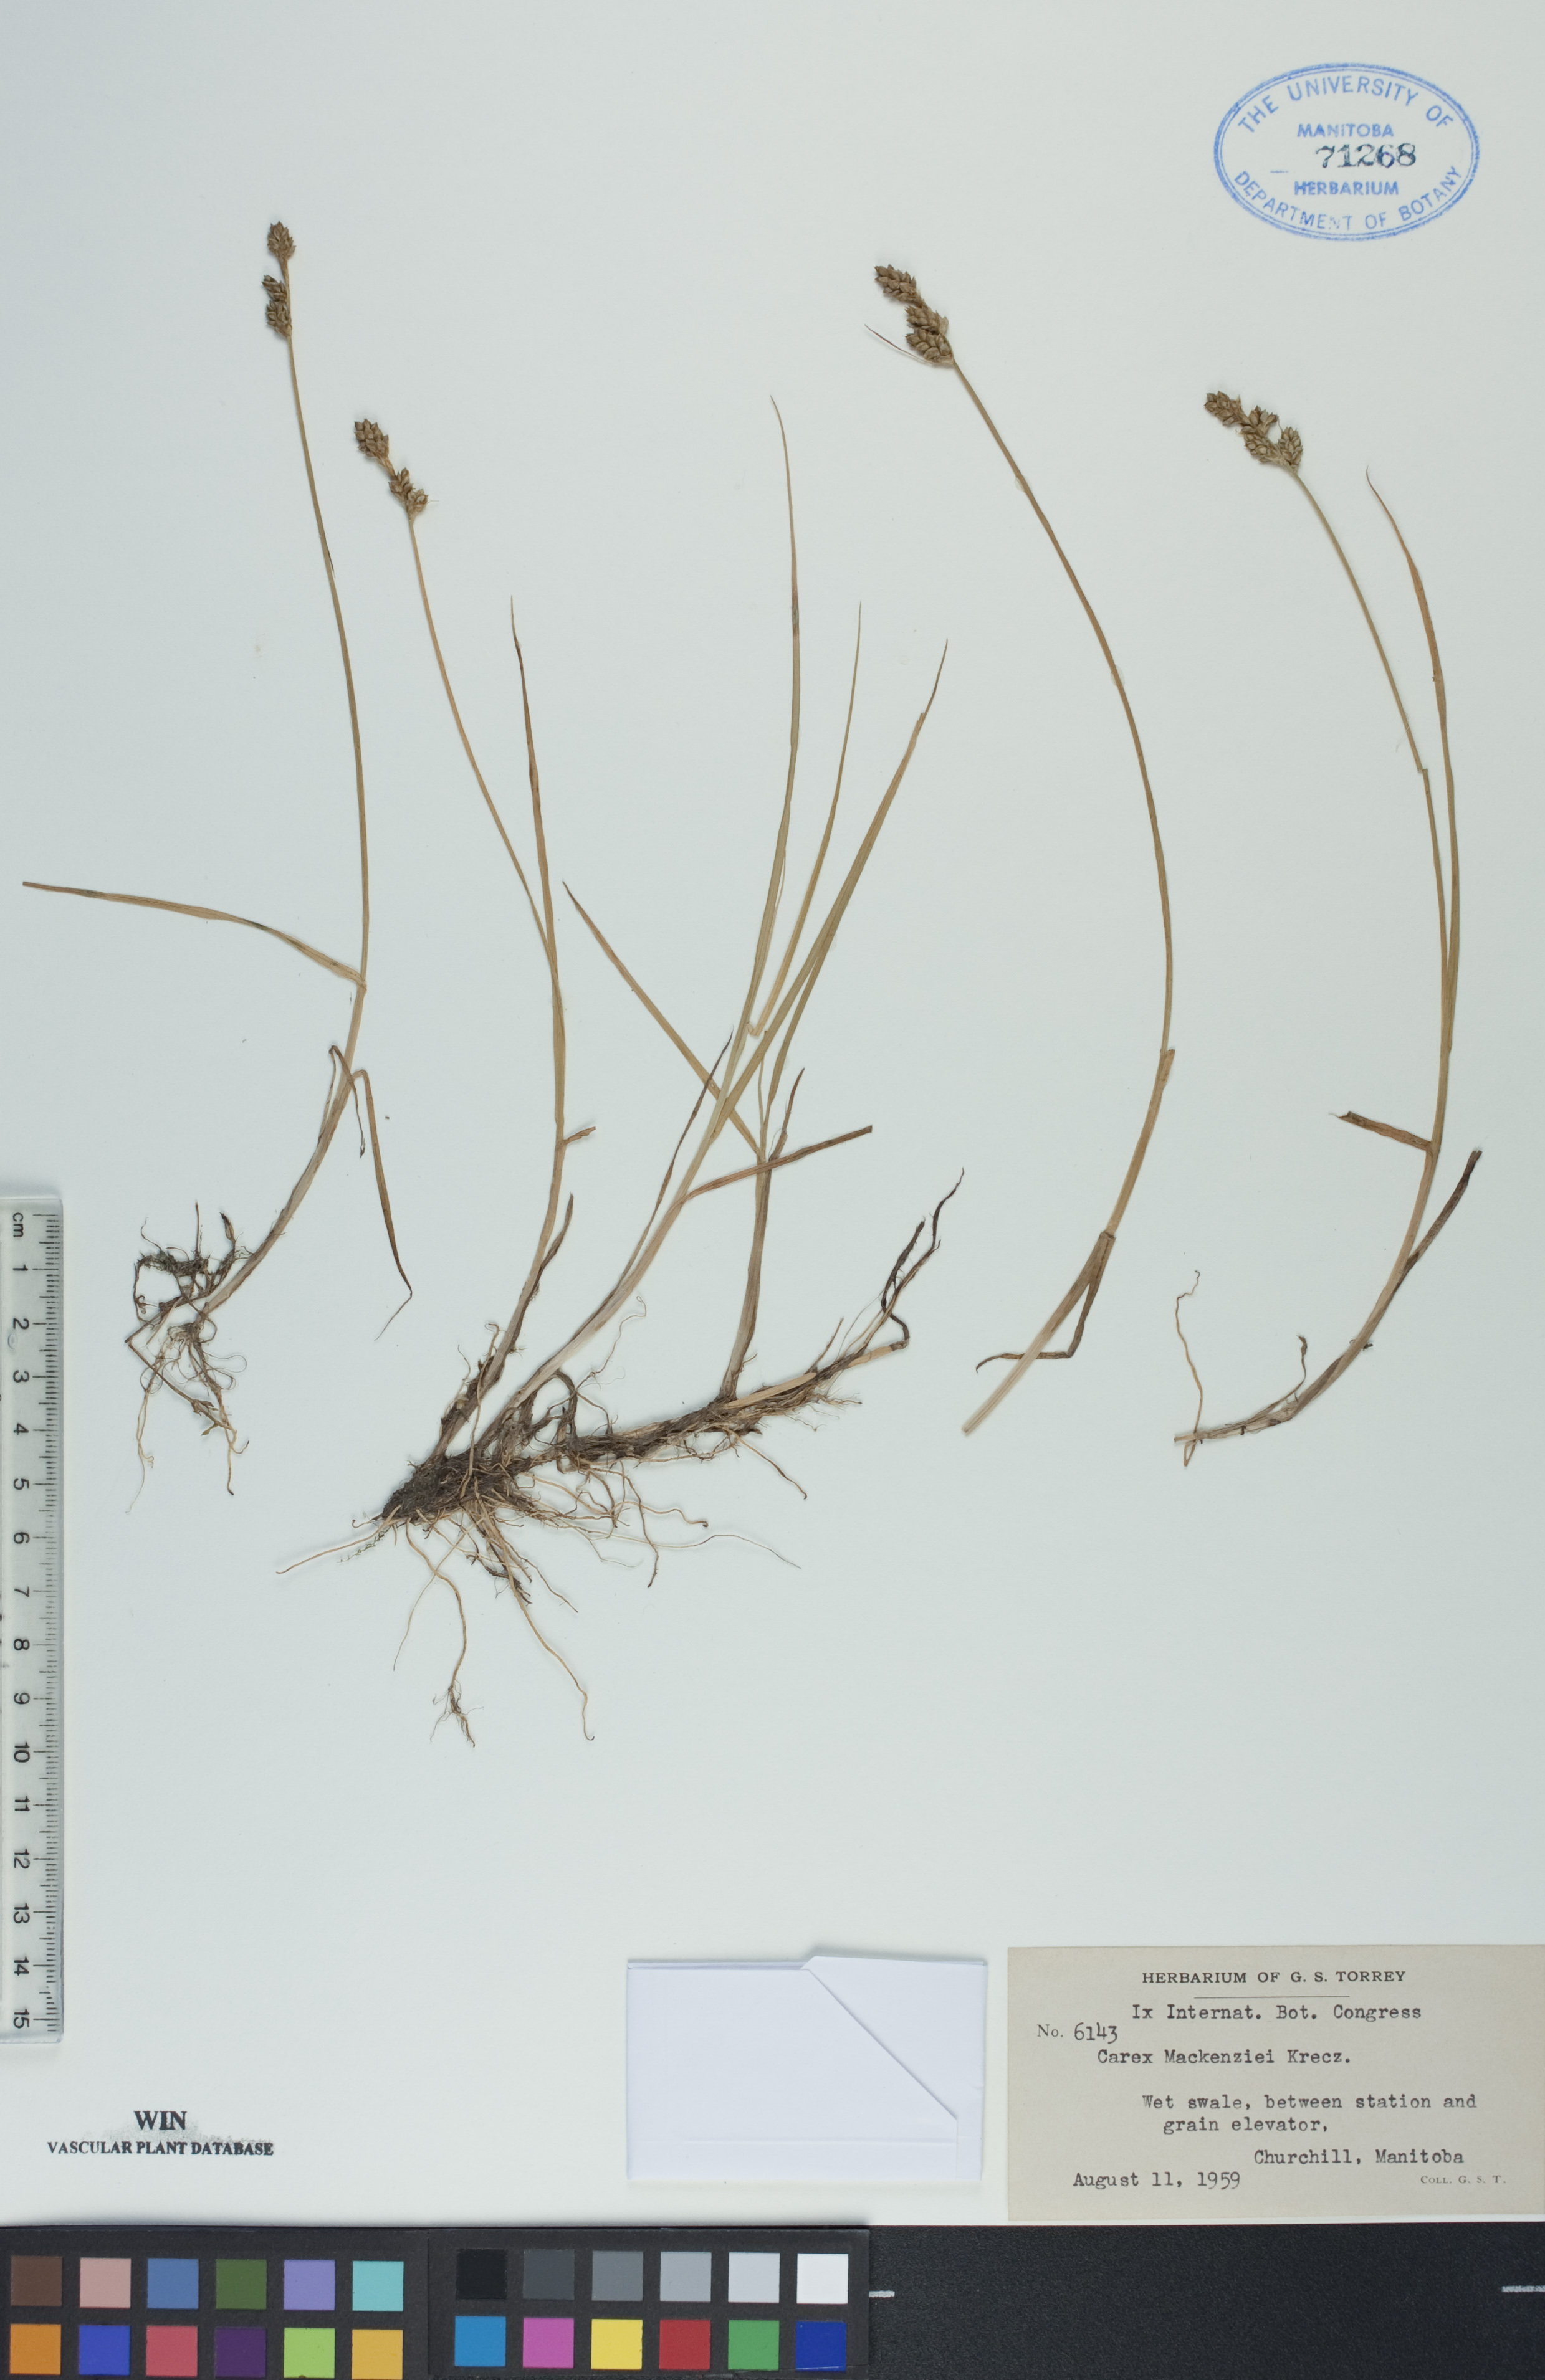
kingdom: Plantae
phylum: Tracheophyta
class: Liliopsida
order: Poales
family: Cyperaceae
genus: Carex
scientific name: Carex mackenziei
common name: Mackenzie's sedge
